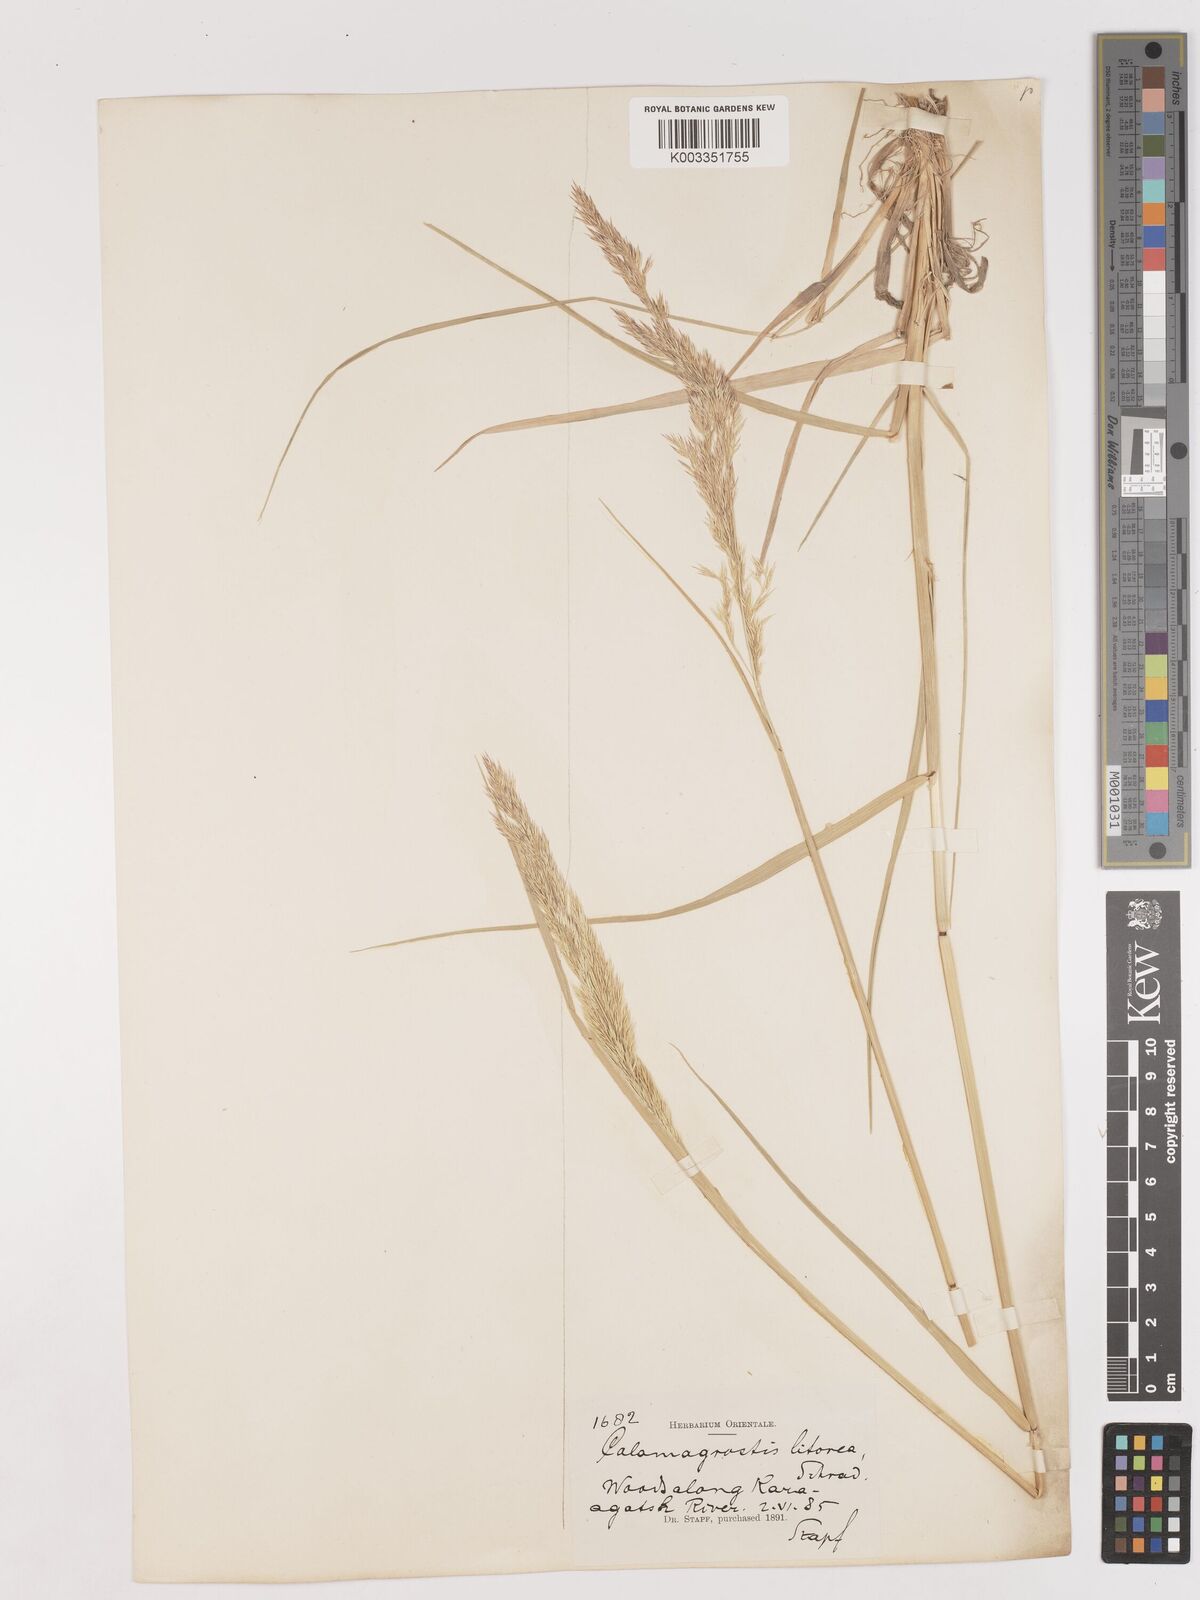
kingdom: Plantae
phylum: Tracheophyta
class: Liliopsida
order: Poales
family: Poaceae
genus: Calamagrostis
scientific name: Calamagrostis pseudophragmites
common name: Coastal small-reed
